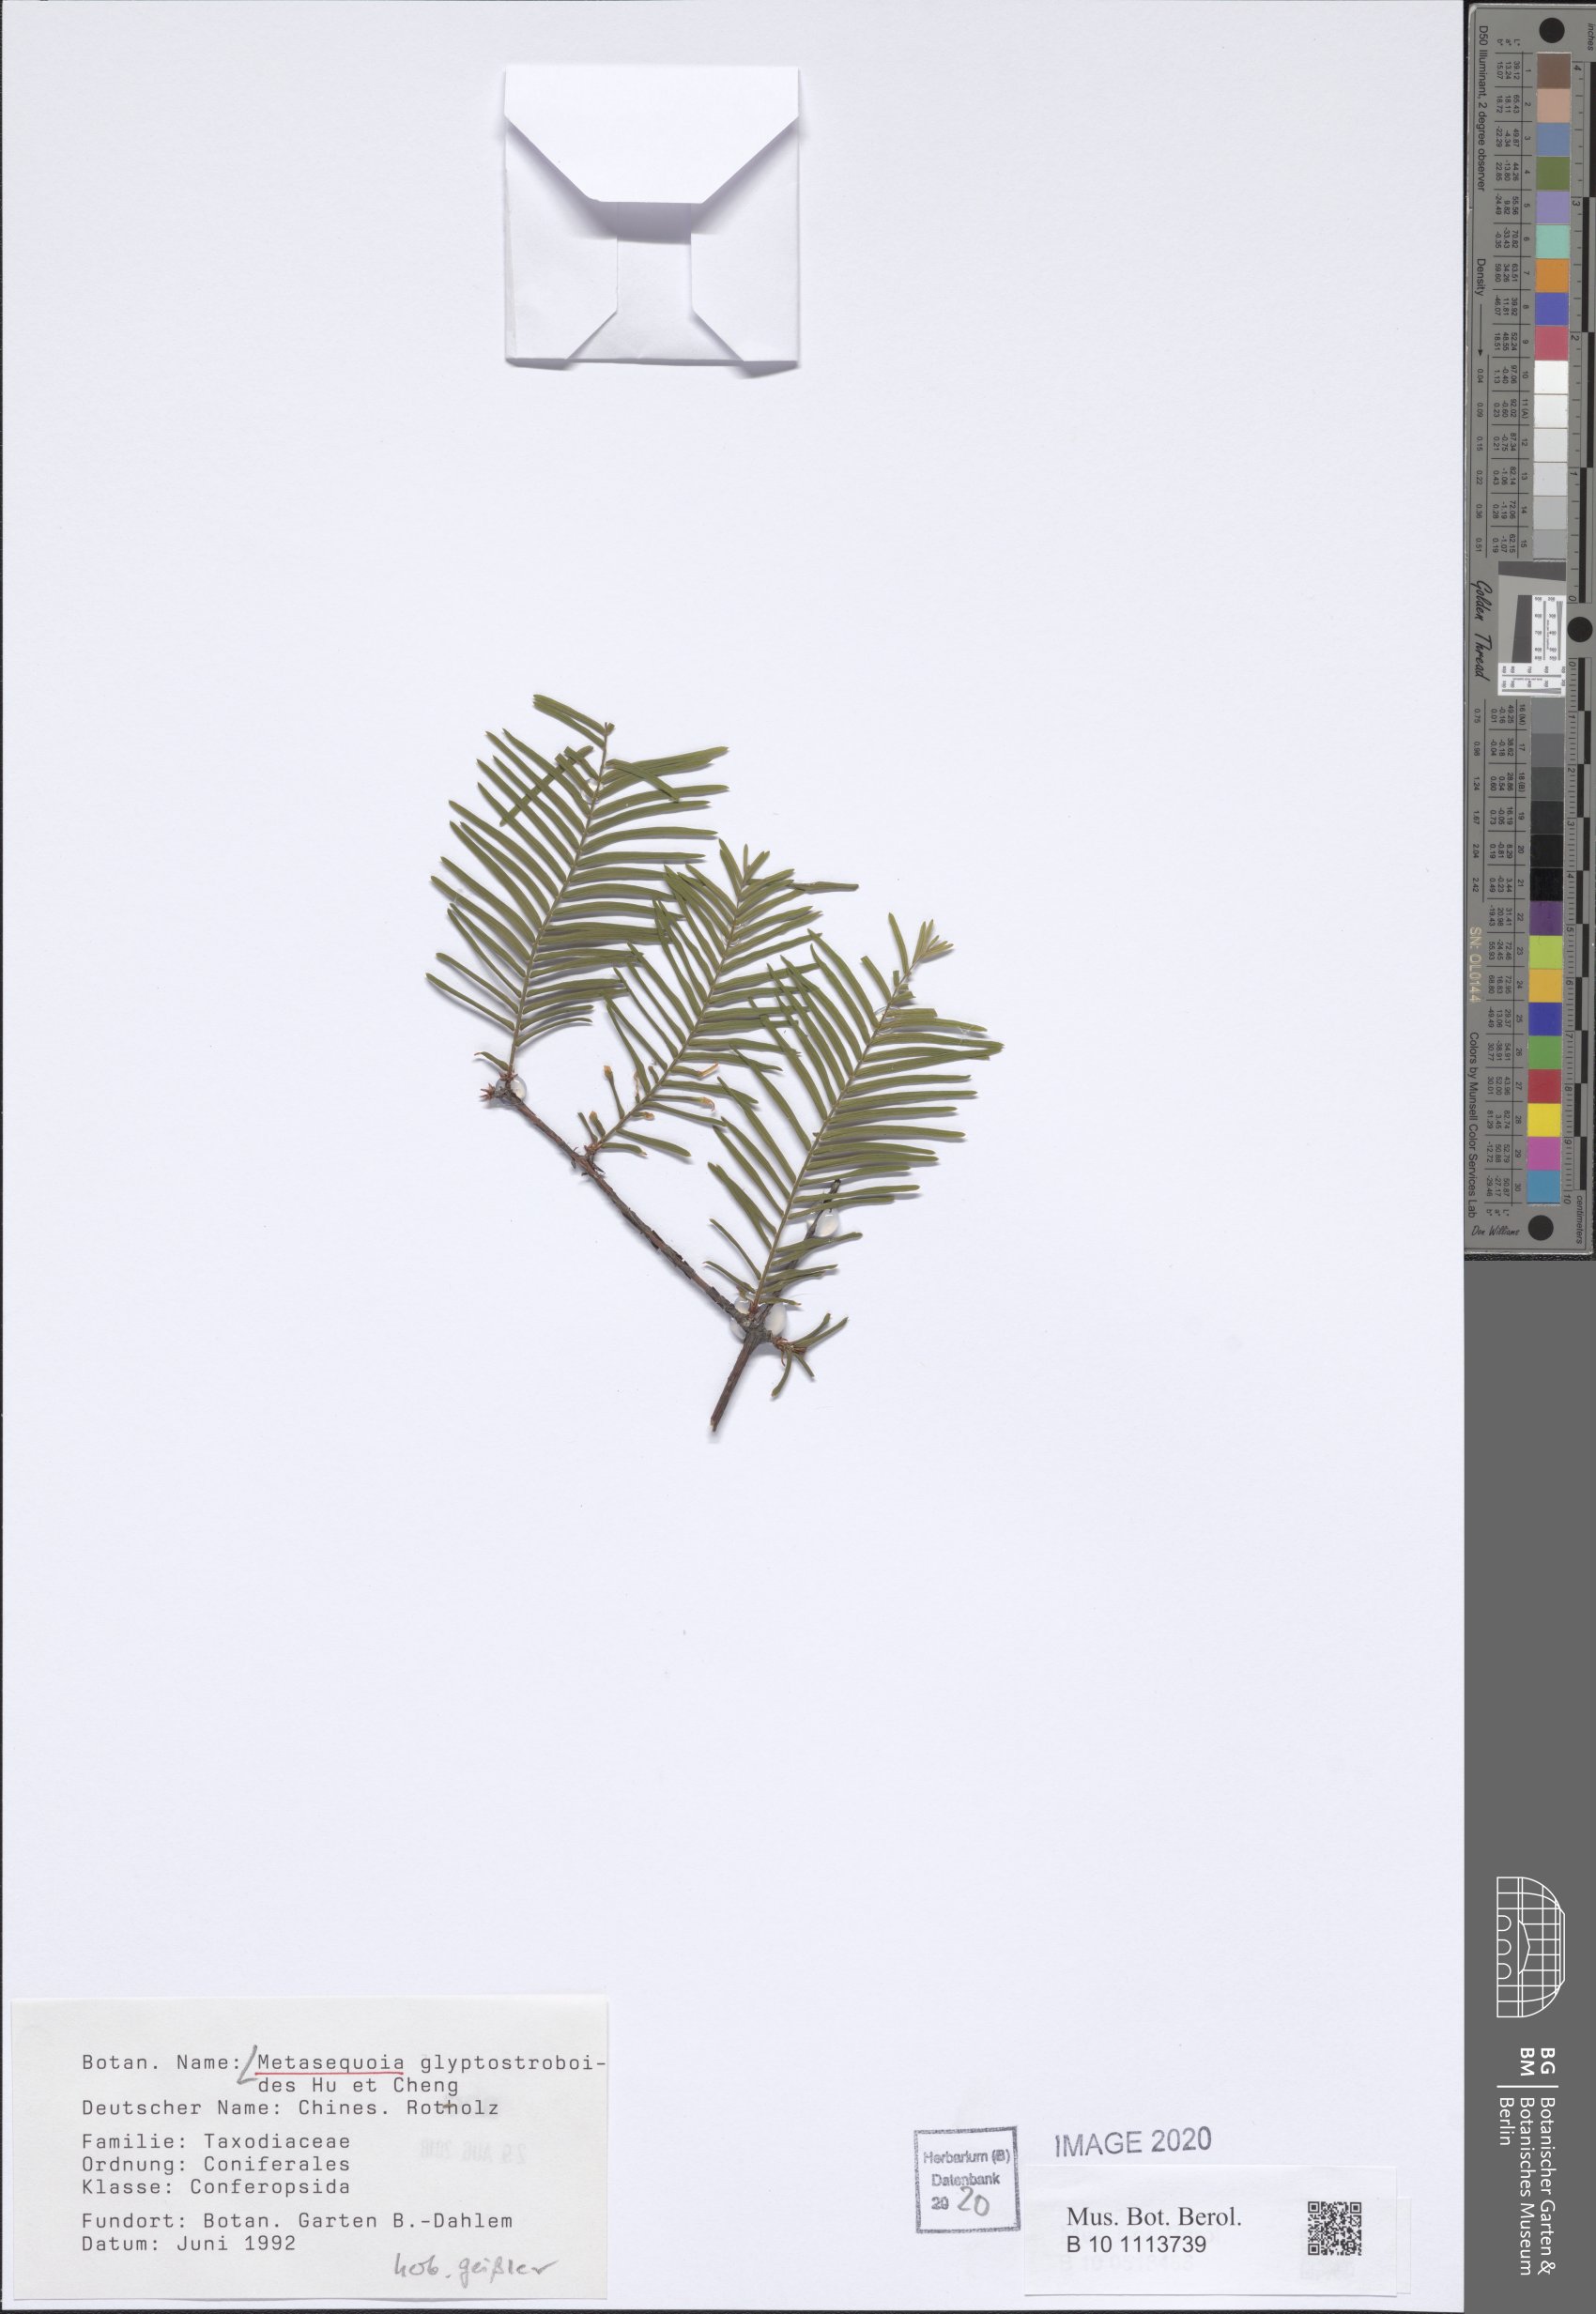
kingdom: Plantae
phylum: Tracheophyta
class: Pinopsida
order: Pinales
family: Cupressaceae
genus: Metasequoia
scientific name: Metasequoia glyptostroboides
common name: Dawn redwood
